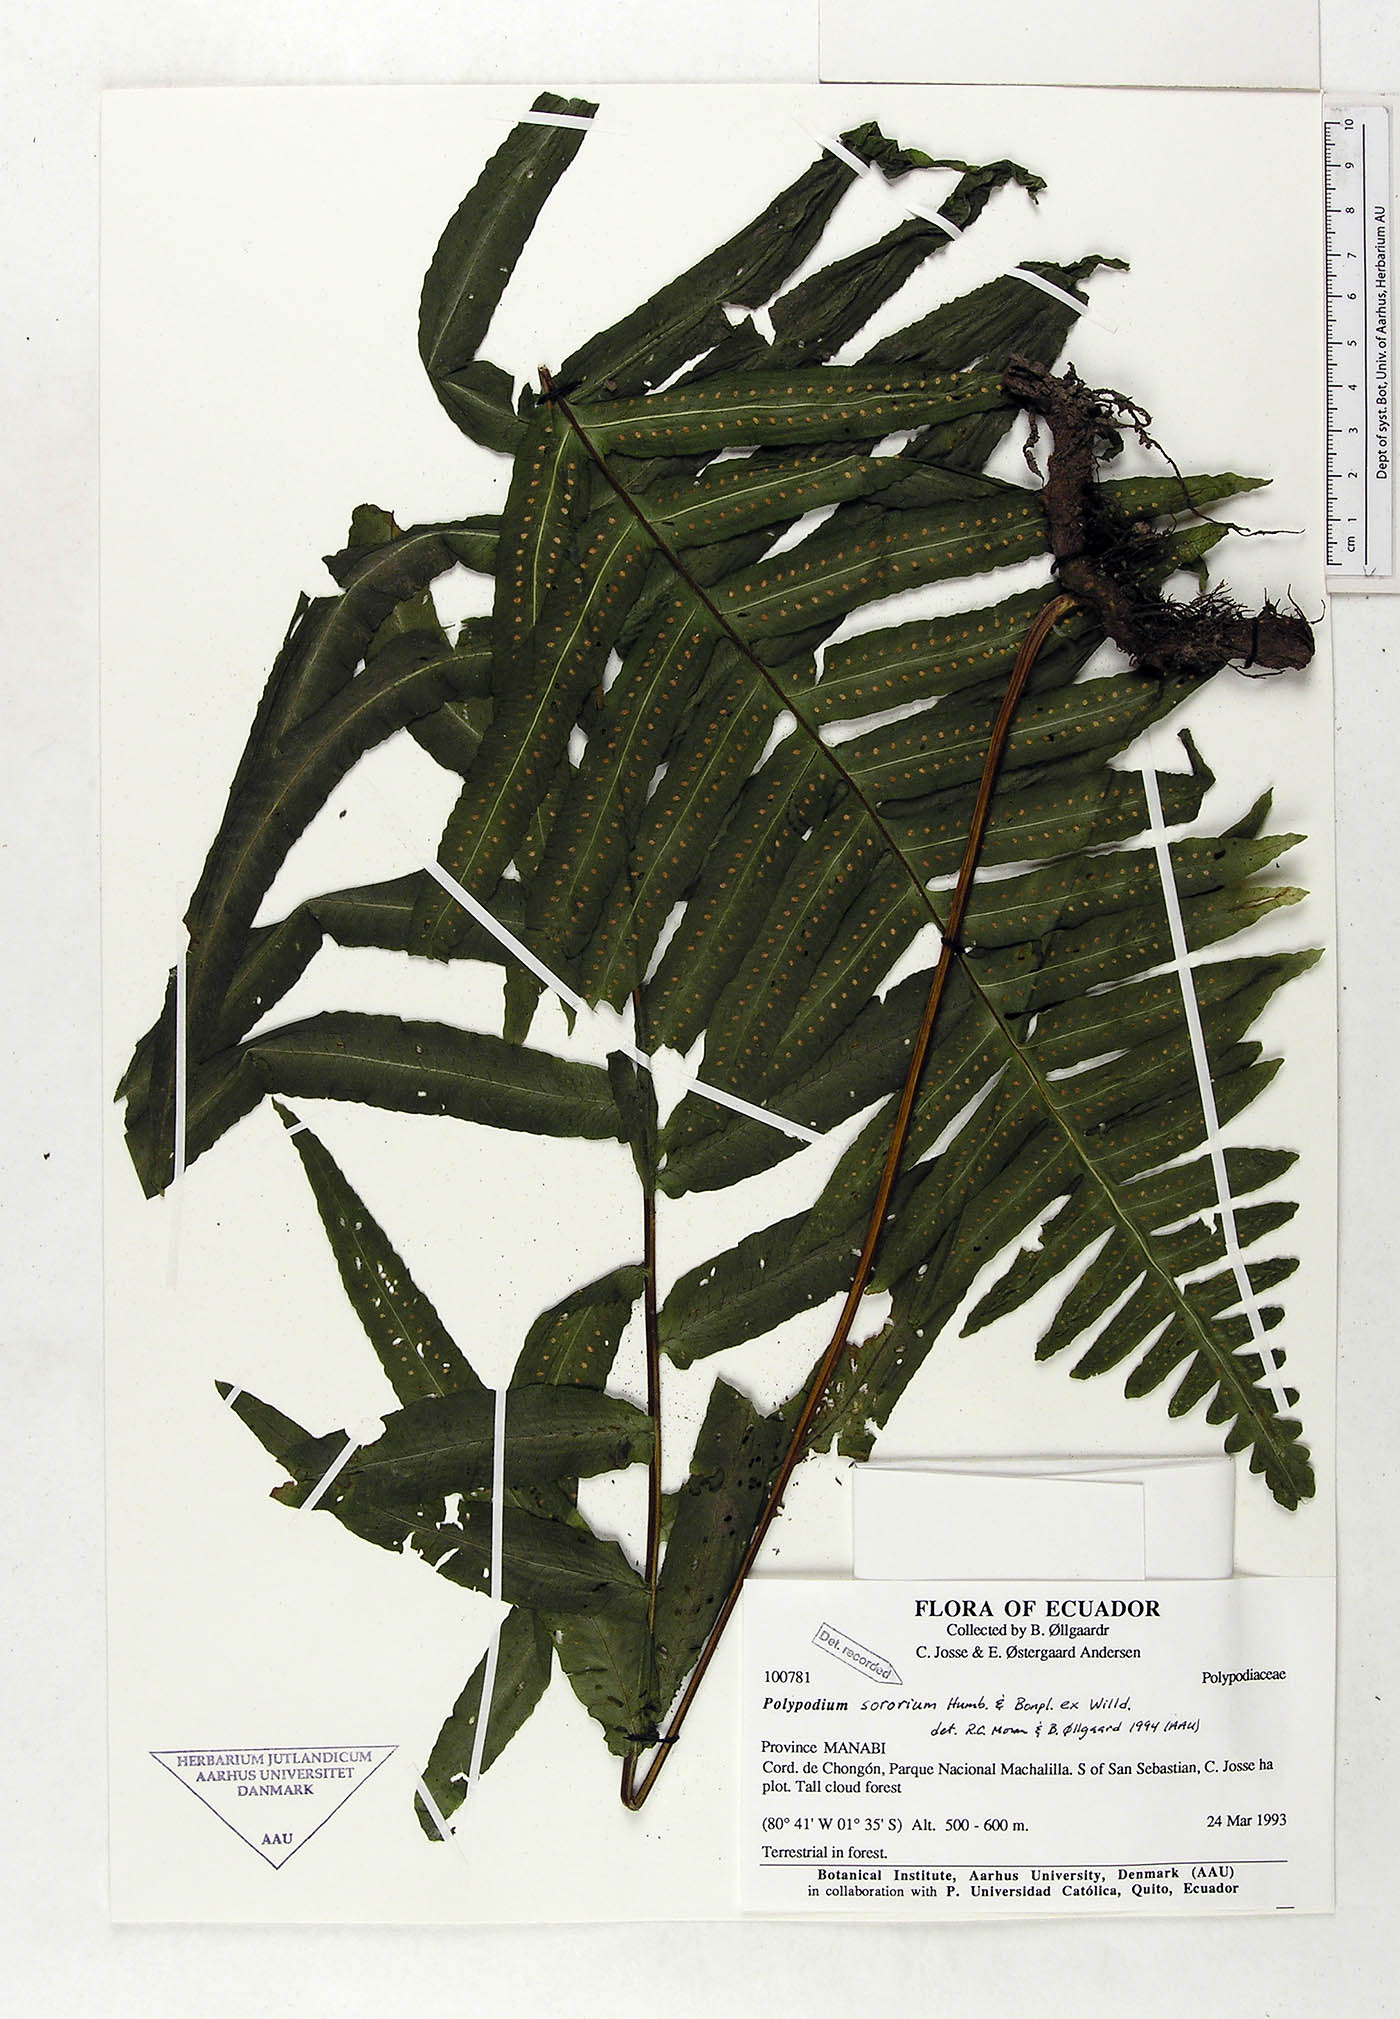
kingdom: Plantae
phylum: Tracheophyta
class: Polypodiopsida
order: Polypodiales
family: Polypodiaceae
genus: Pecluma
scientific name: Pecluma dulcis
